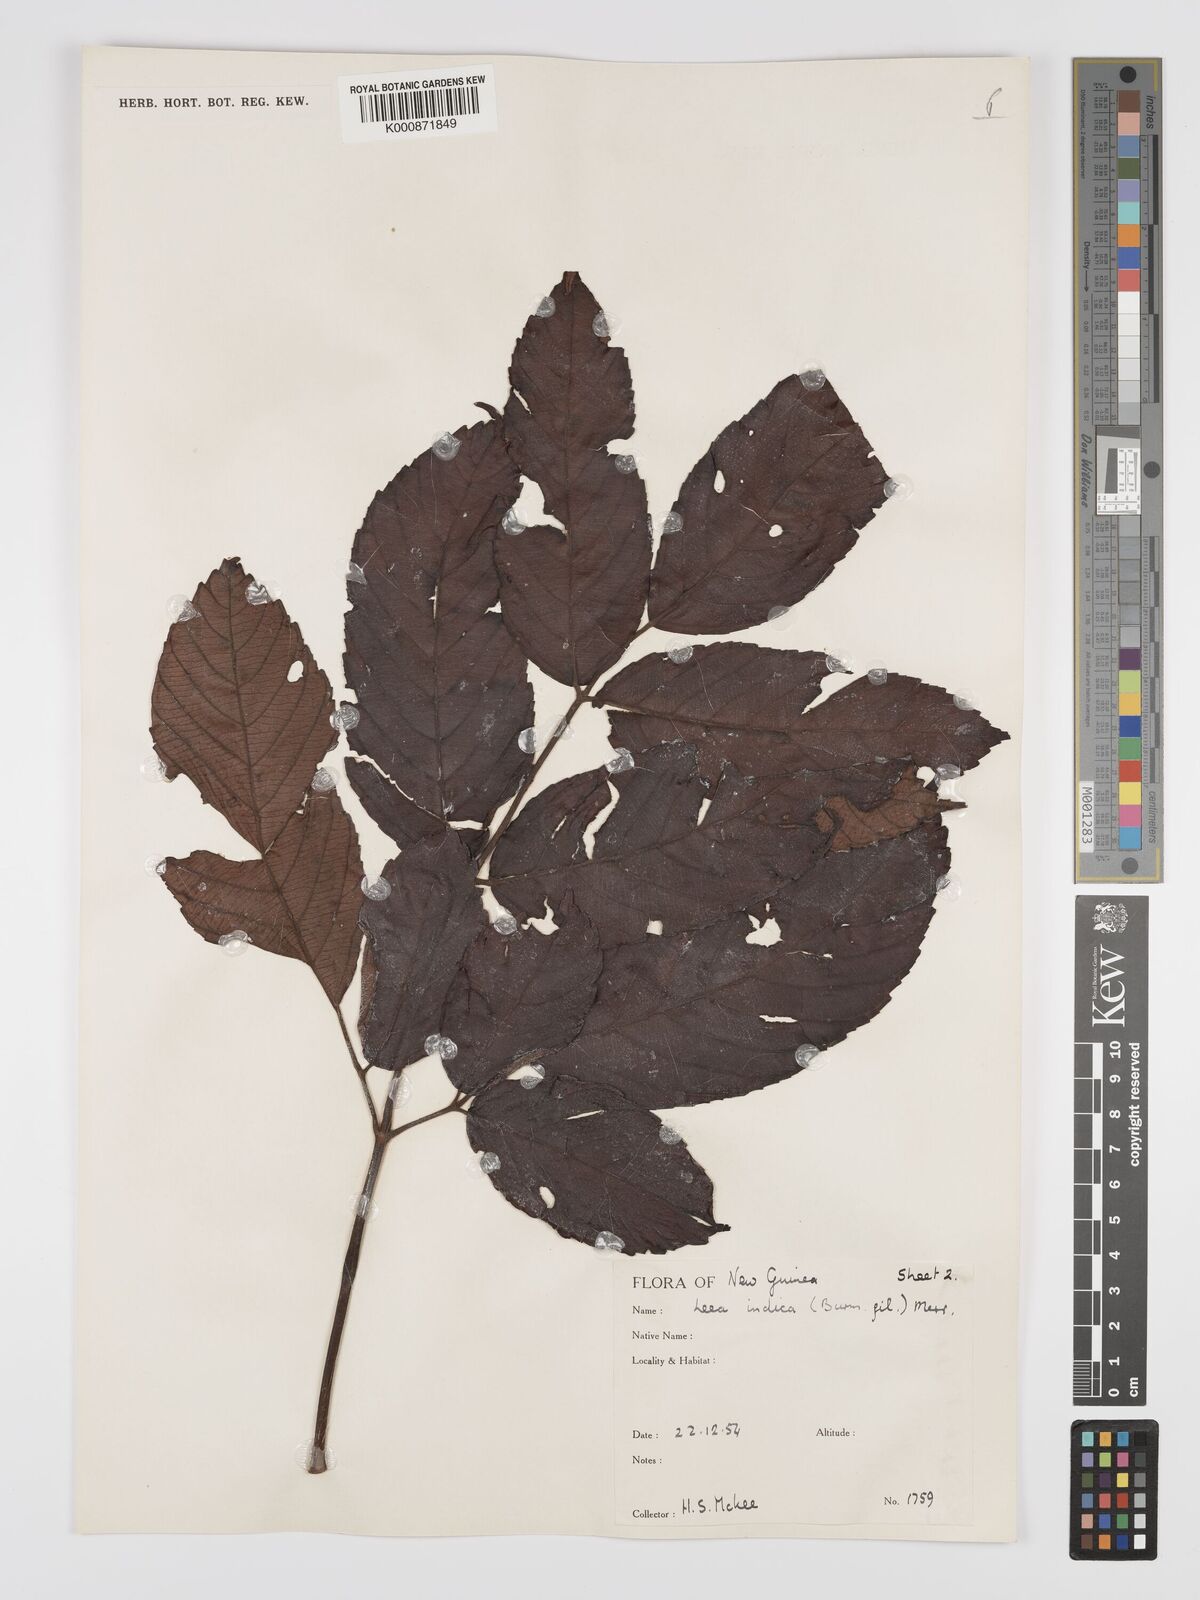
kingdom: Plantae
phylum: Tracheophyta
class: Magnoliopsida
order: Vitales
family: Vitaceae
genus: Leea
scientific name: Leea indica
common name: Bandicoot-berry
